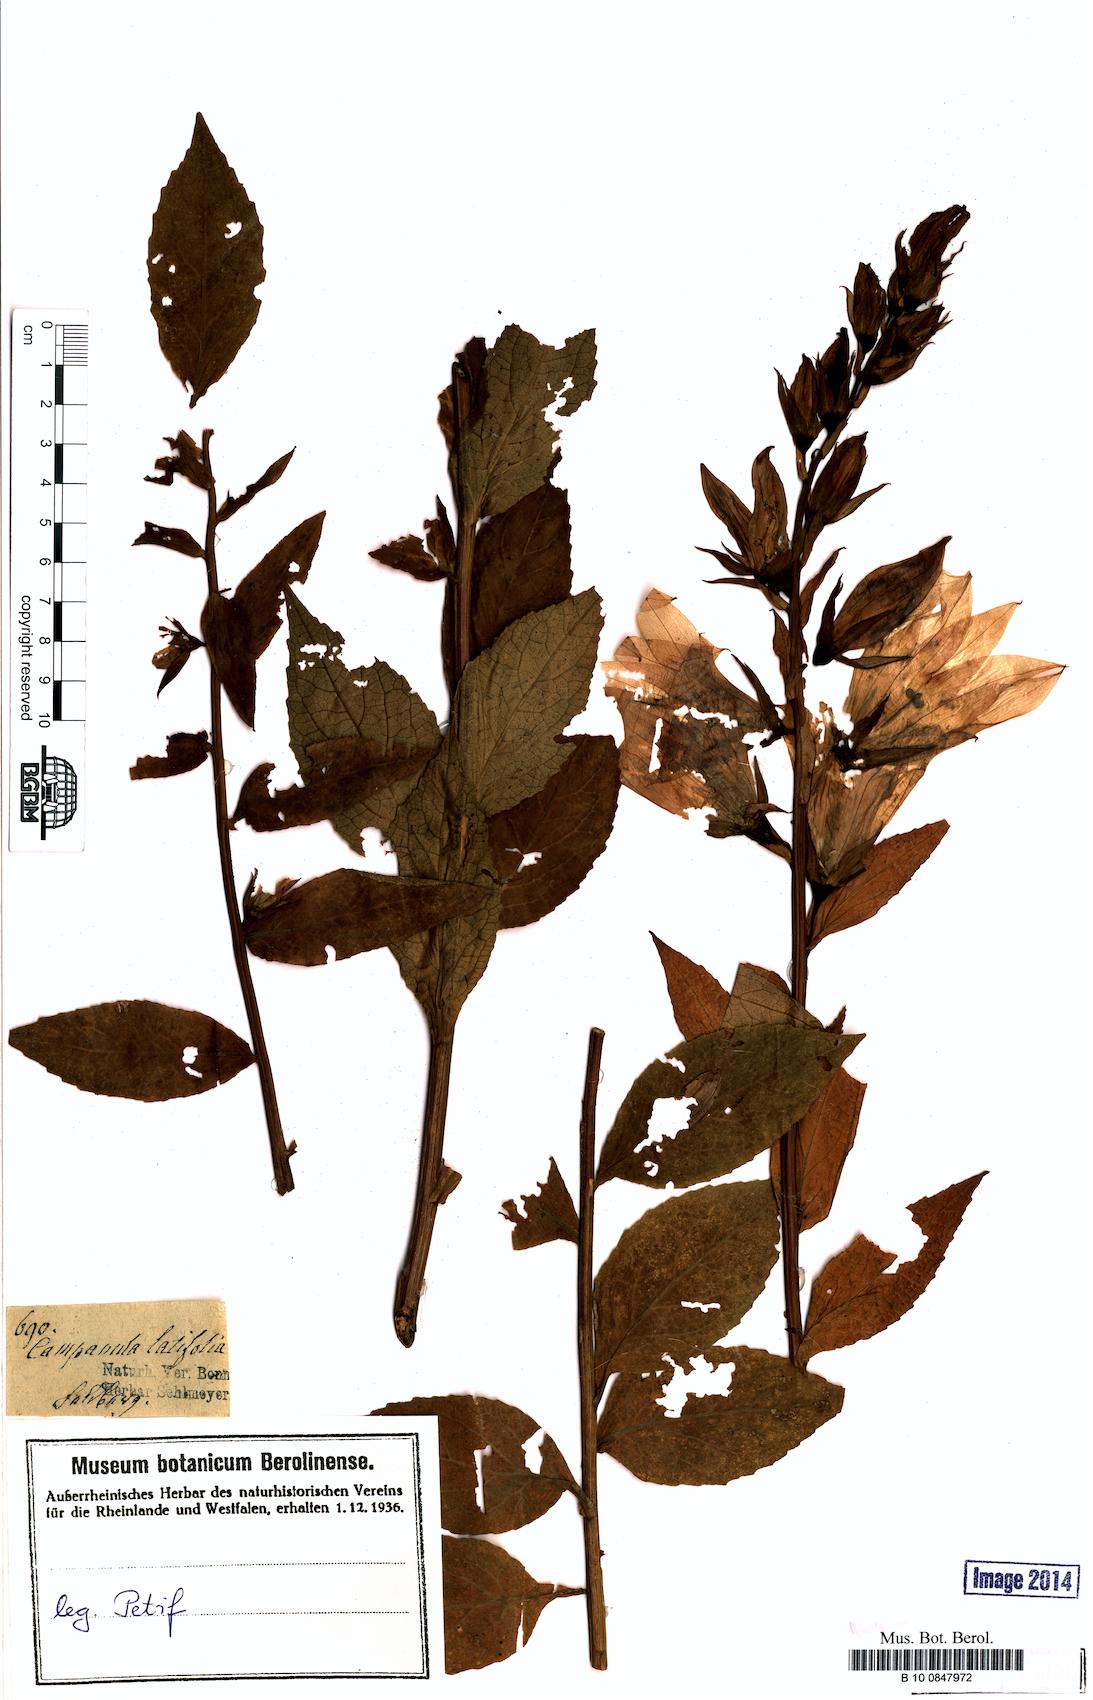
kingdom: Plantae
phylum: Tracheophyta
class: Magnoliopsida
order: Asterales
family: Campanulaceae
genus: Campanula
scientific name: Campanula latifolia
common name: Giant bellflower
